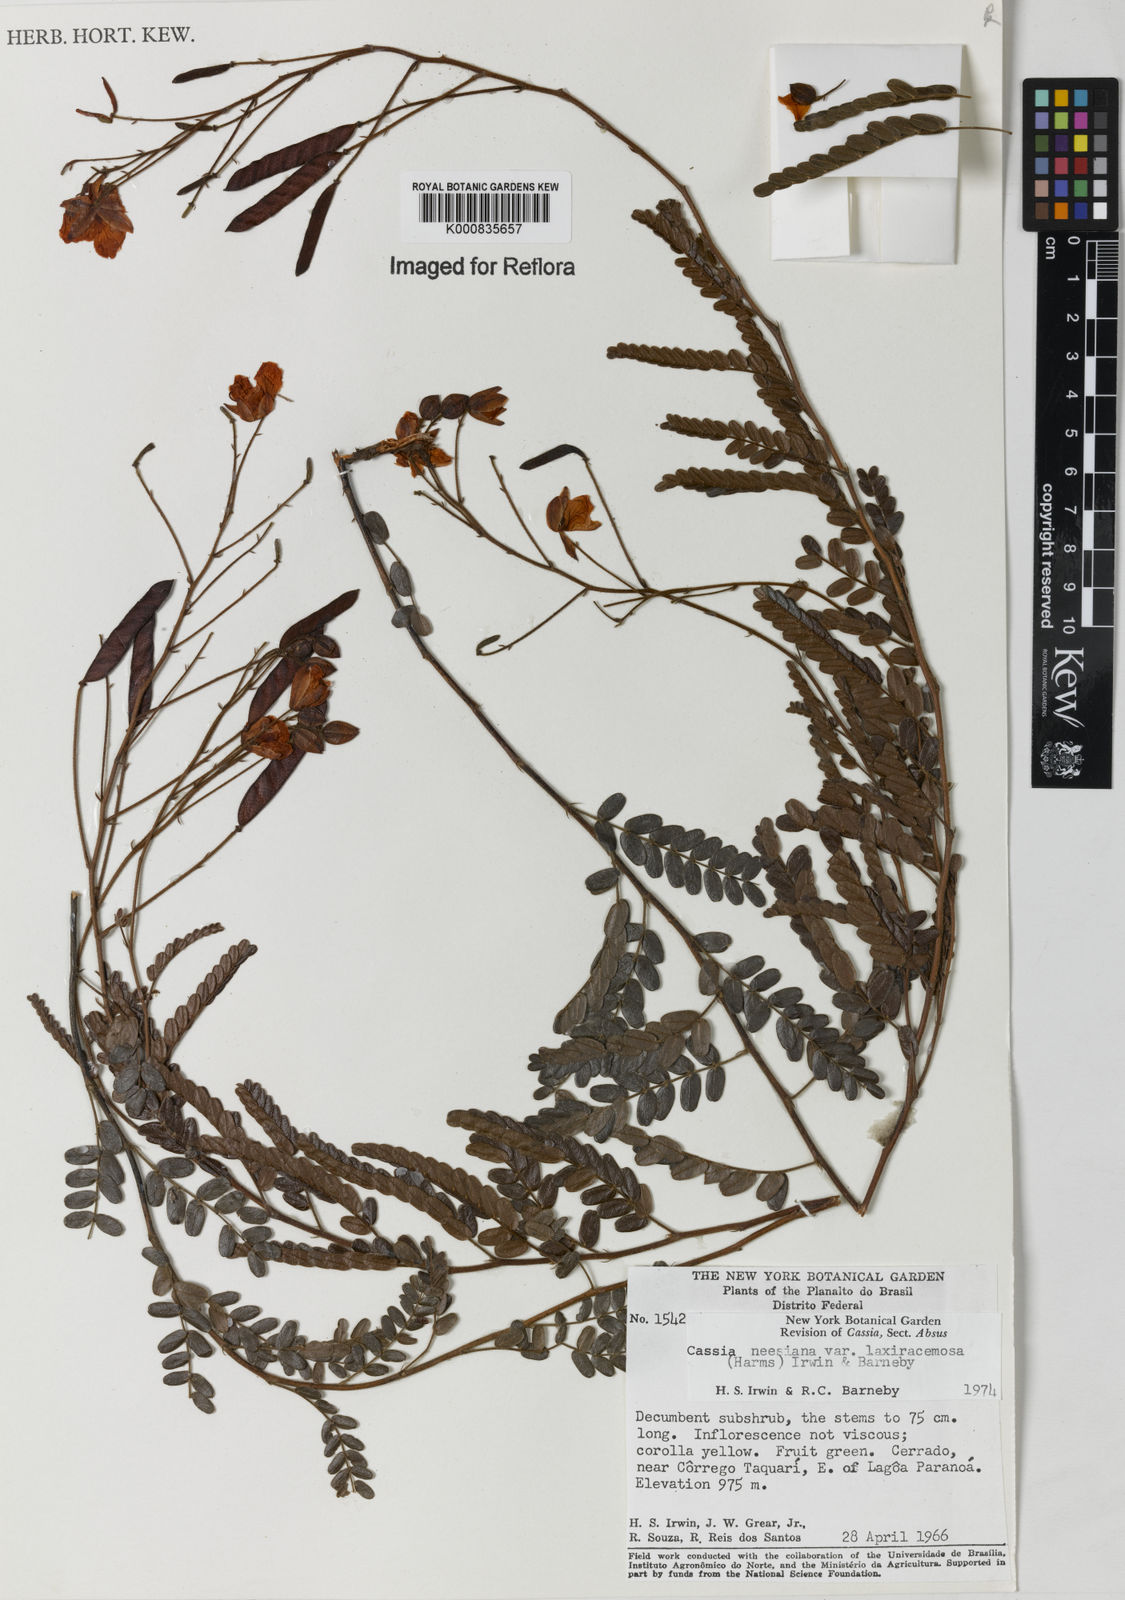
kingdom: Plantae
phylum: Tracheophyta
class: Magnoliopsida
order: Fabales
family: Fabaceae
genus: Chamaecrista
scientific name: Chamaecrista neesiana
